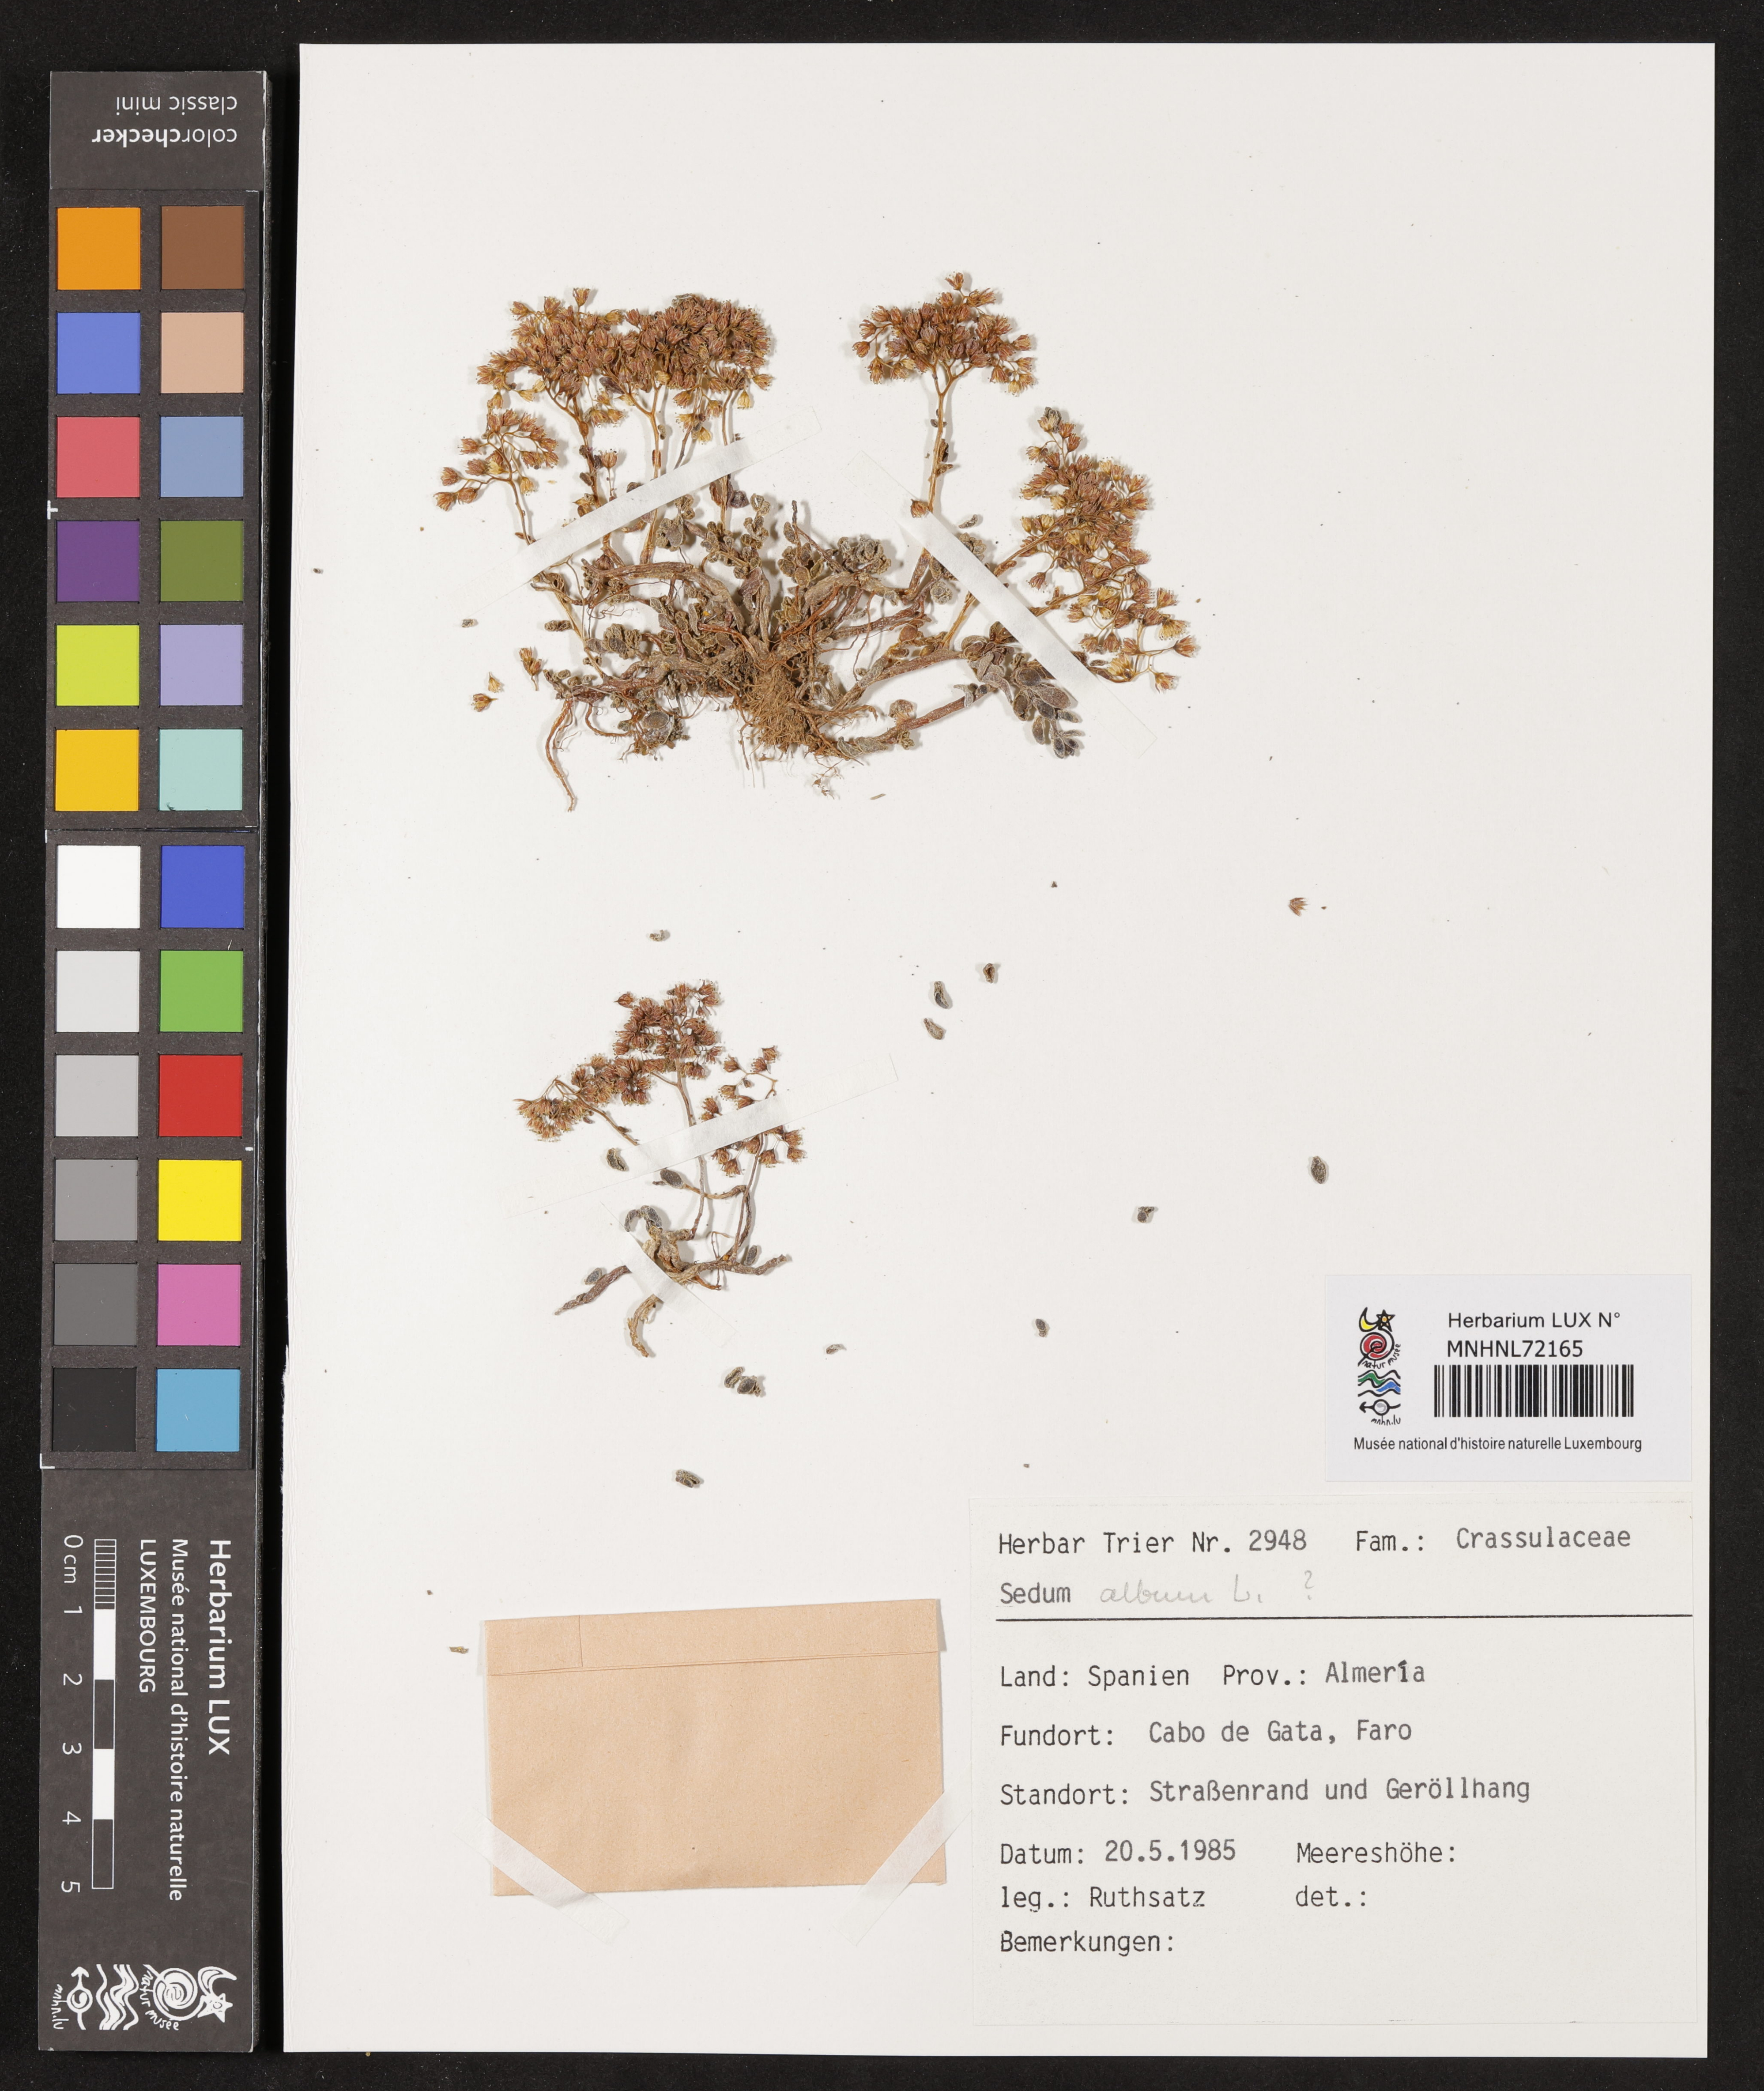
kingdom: Plantae
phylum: Tracheophyta
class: Magnoliopsida
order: Saxifragales
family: Crassulaceae
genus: Sedum
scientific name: Sedum album
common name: White stonecrop
